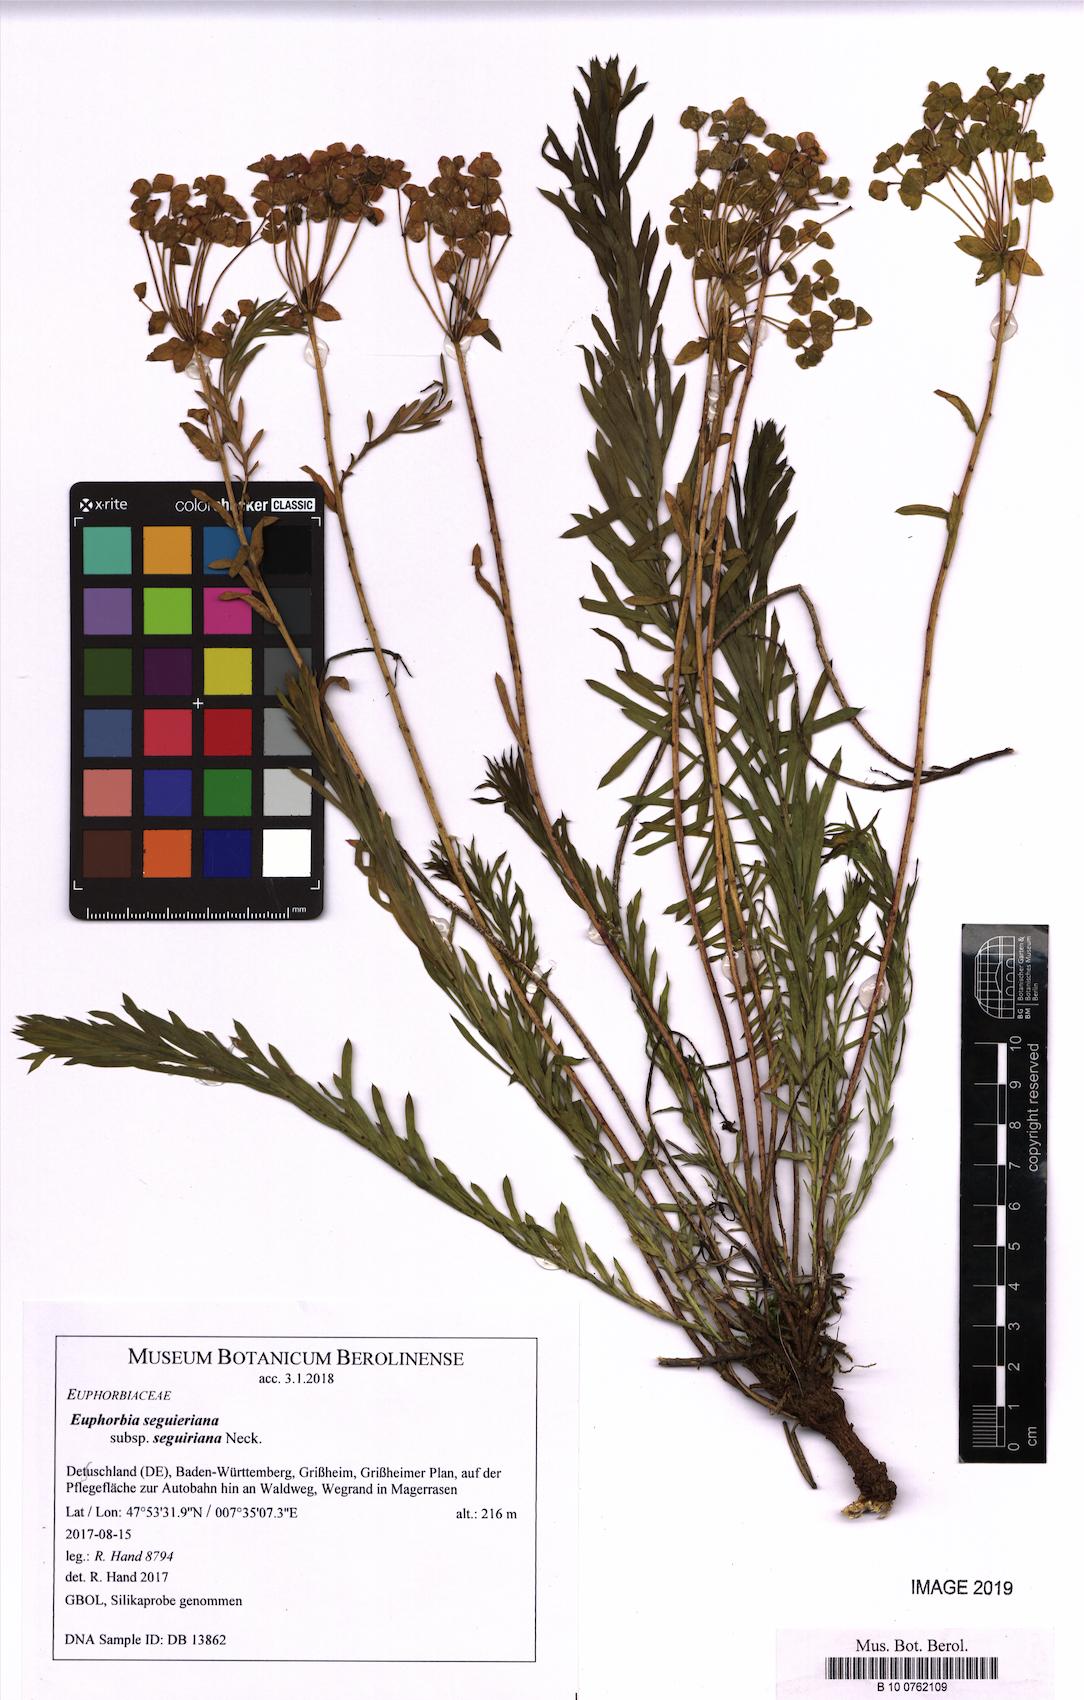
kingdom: Plantae
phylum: Tracheophyta
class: Magnoliopsida
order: Malpighiales
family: Euphorbiaceae
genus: Euphorbia
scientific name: Euphorbia seguieriana
